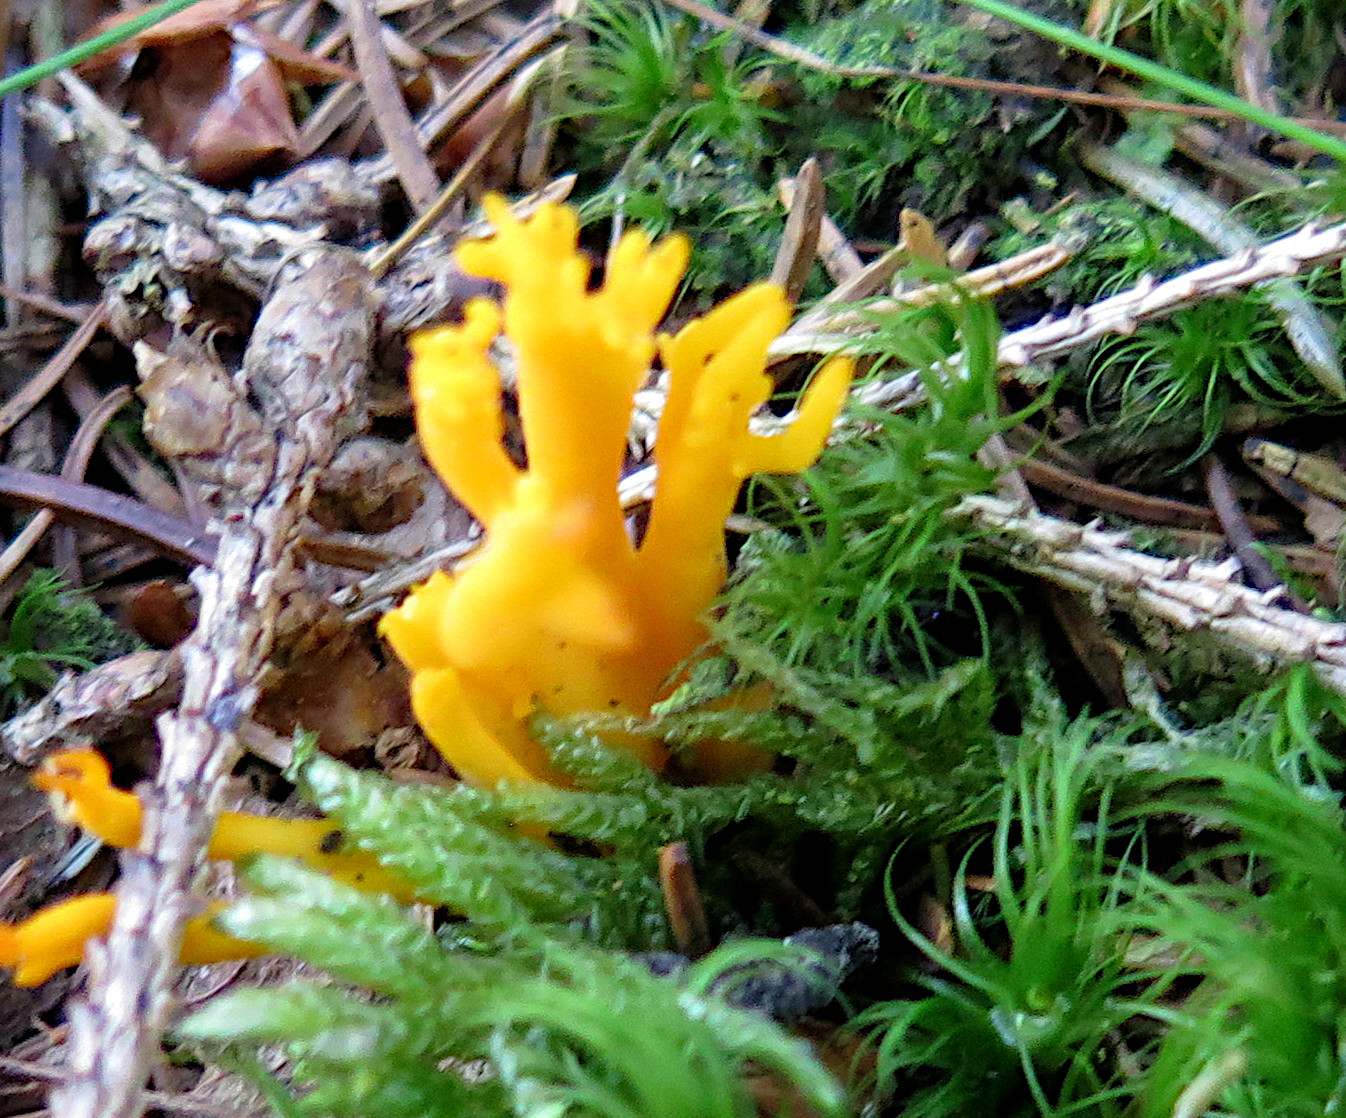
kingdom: Fungi
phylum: Basidiomycota
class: Dacrymycetes
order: Dacrymycetales
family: Dacrymycetaceae
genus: Calocera
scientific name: Calocera viscosa
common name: almindelig guldgaffel
